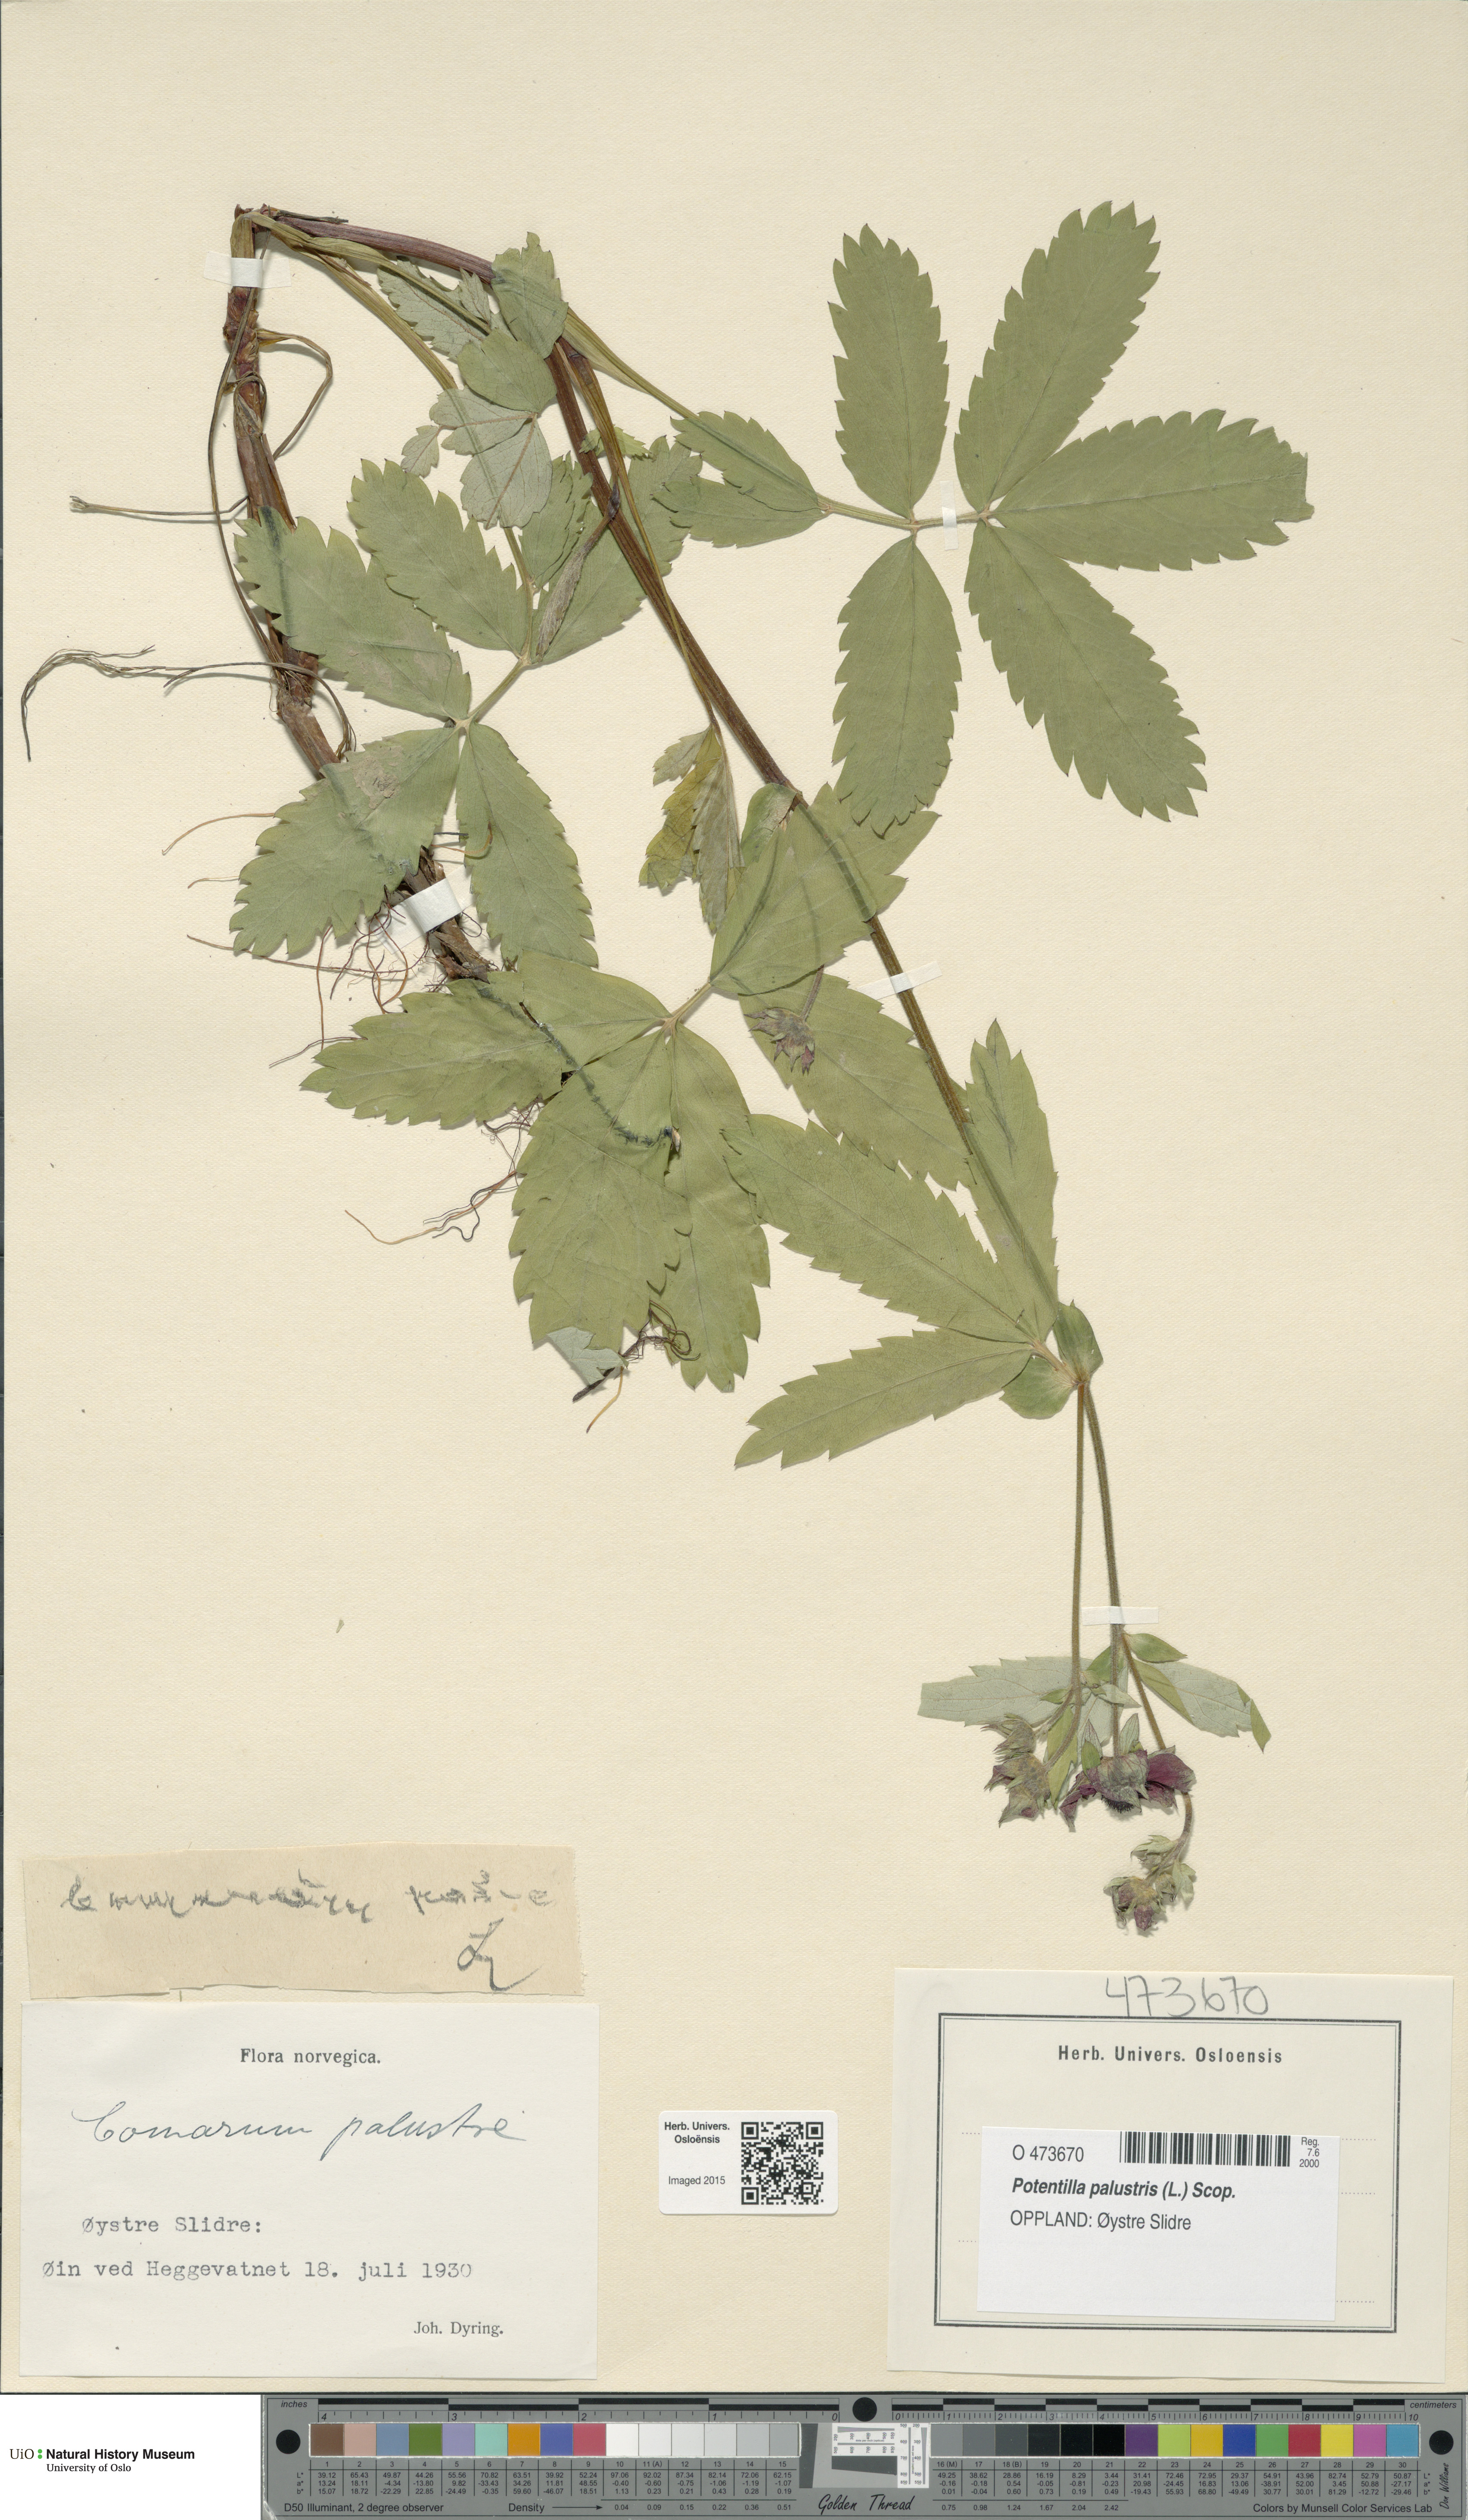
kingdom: Plantae
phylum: Tracheophyta
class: Magnoliopsida
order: Rosales
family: Rosaceae
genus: Comarum
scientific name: Comarum palustre
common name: Marsh cinquefoil
